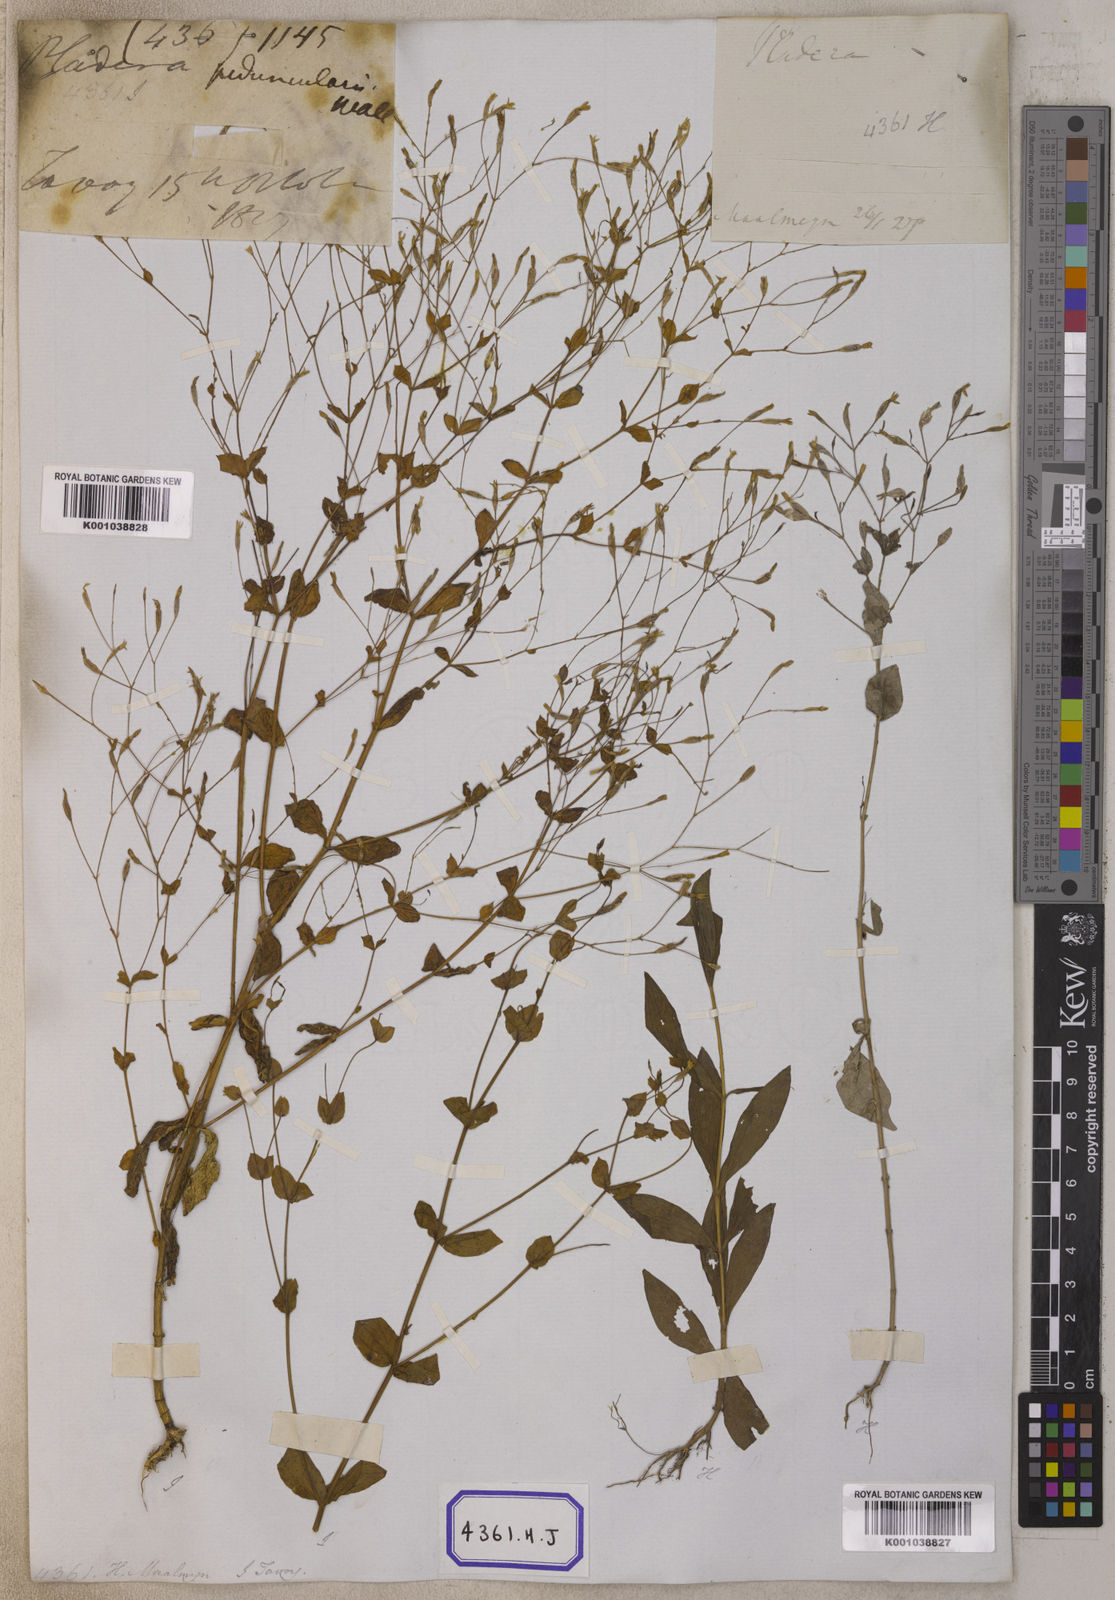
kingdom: Plantae
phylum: Tracheophyta
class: Magnoliopsida
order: Gentianales
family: Gentianaceae
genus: Canscora
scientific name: Canscora
